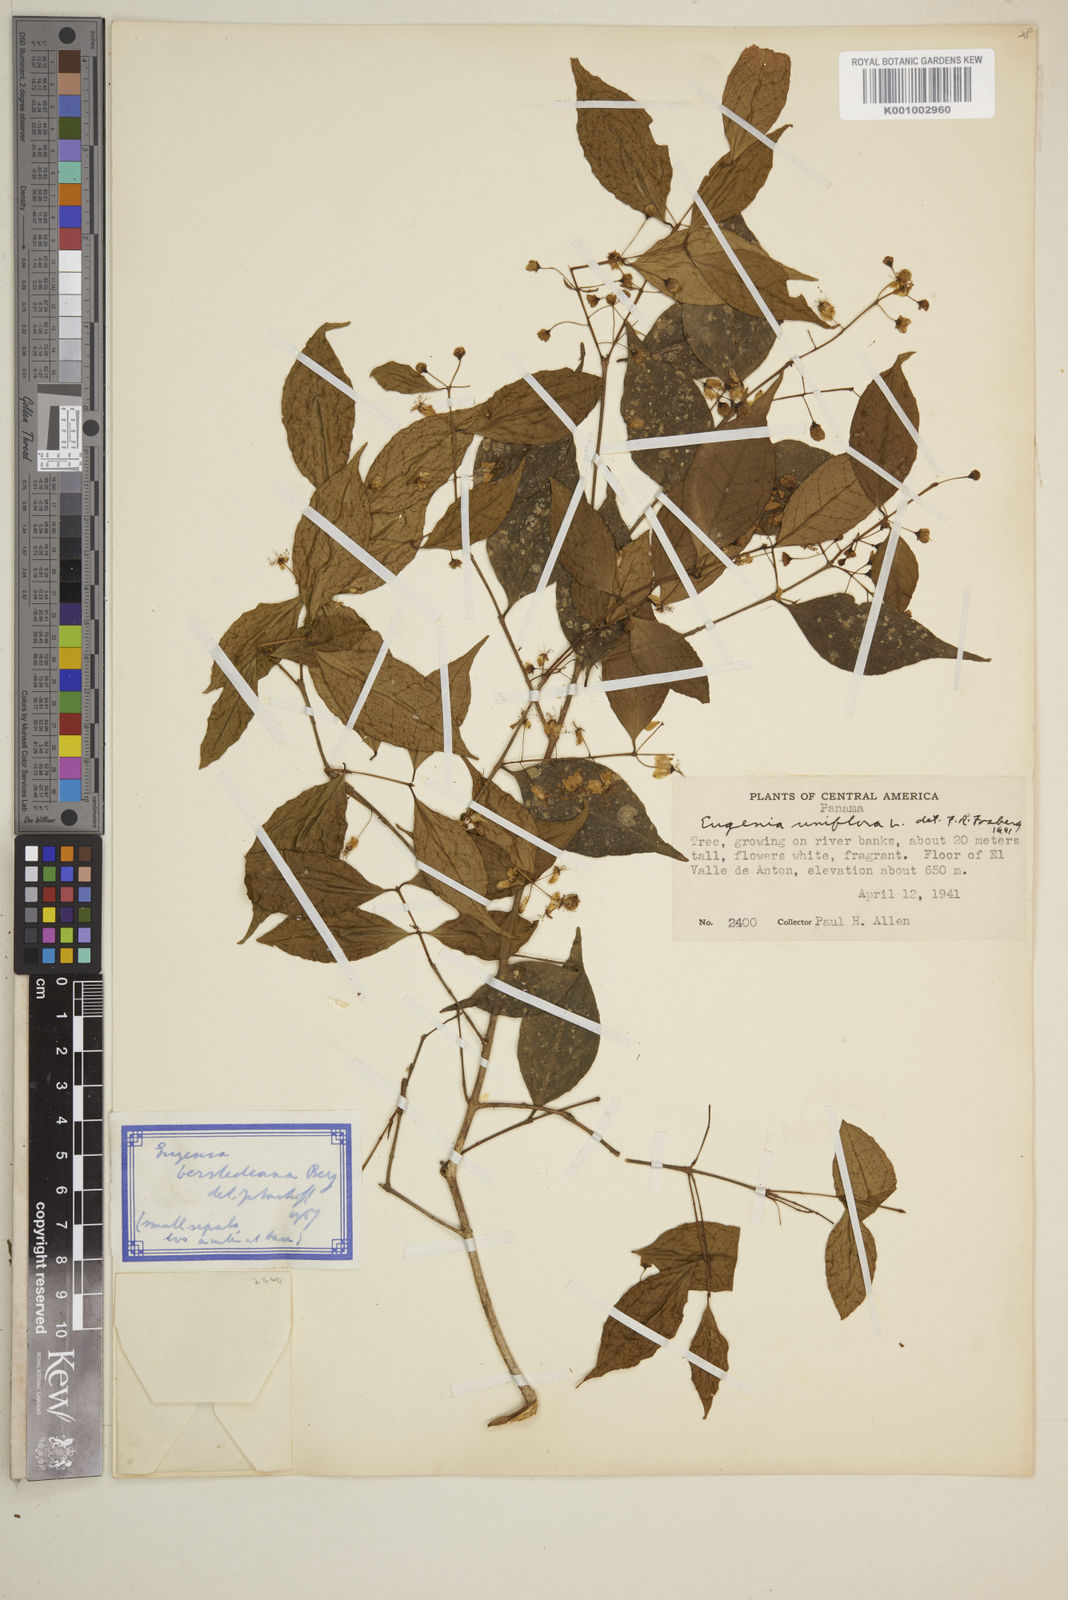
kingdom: Plantae
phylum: Tracheophyta
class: Magnoliopsida
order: Myrtales
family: Myrtaceae
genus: Eugenia
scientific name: Eugenia oerstediana
